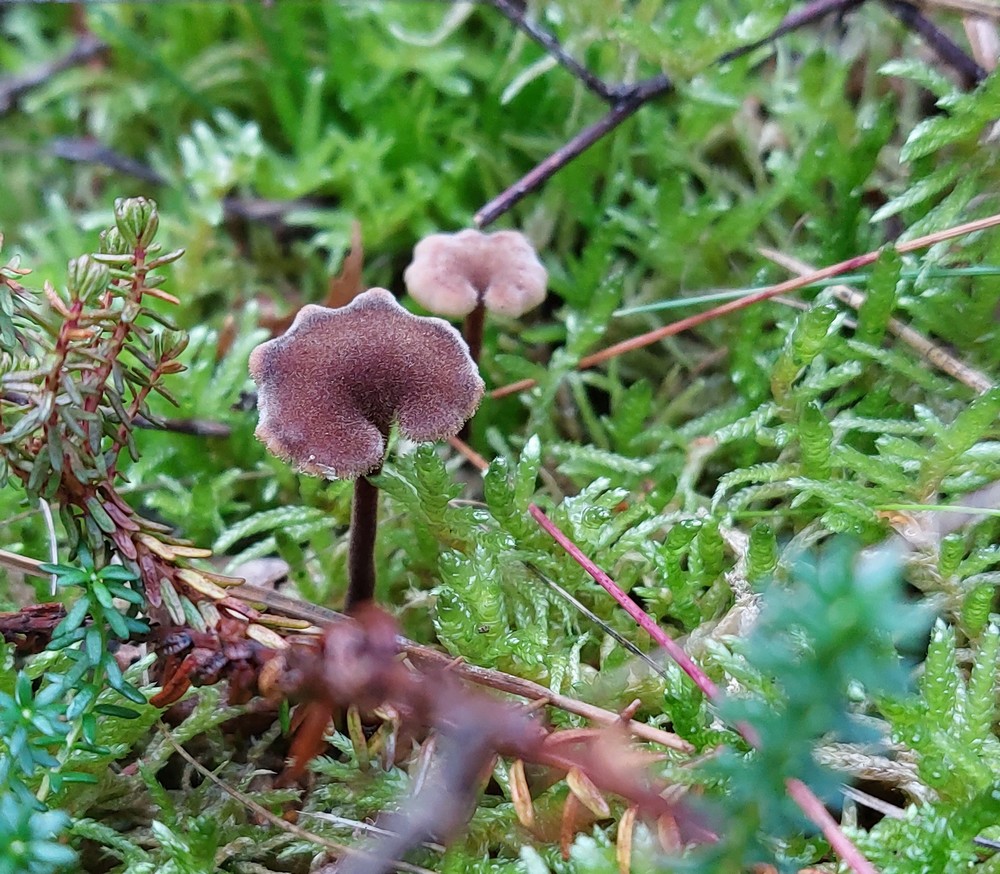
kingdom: Fungi
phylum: Basidiomycota
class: Agaricomycetes
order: Russulales
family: Auriscalpiaceae
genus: Auriscalpium
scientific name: Auriscalpium vulgare
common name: koglepigsvamp
